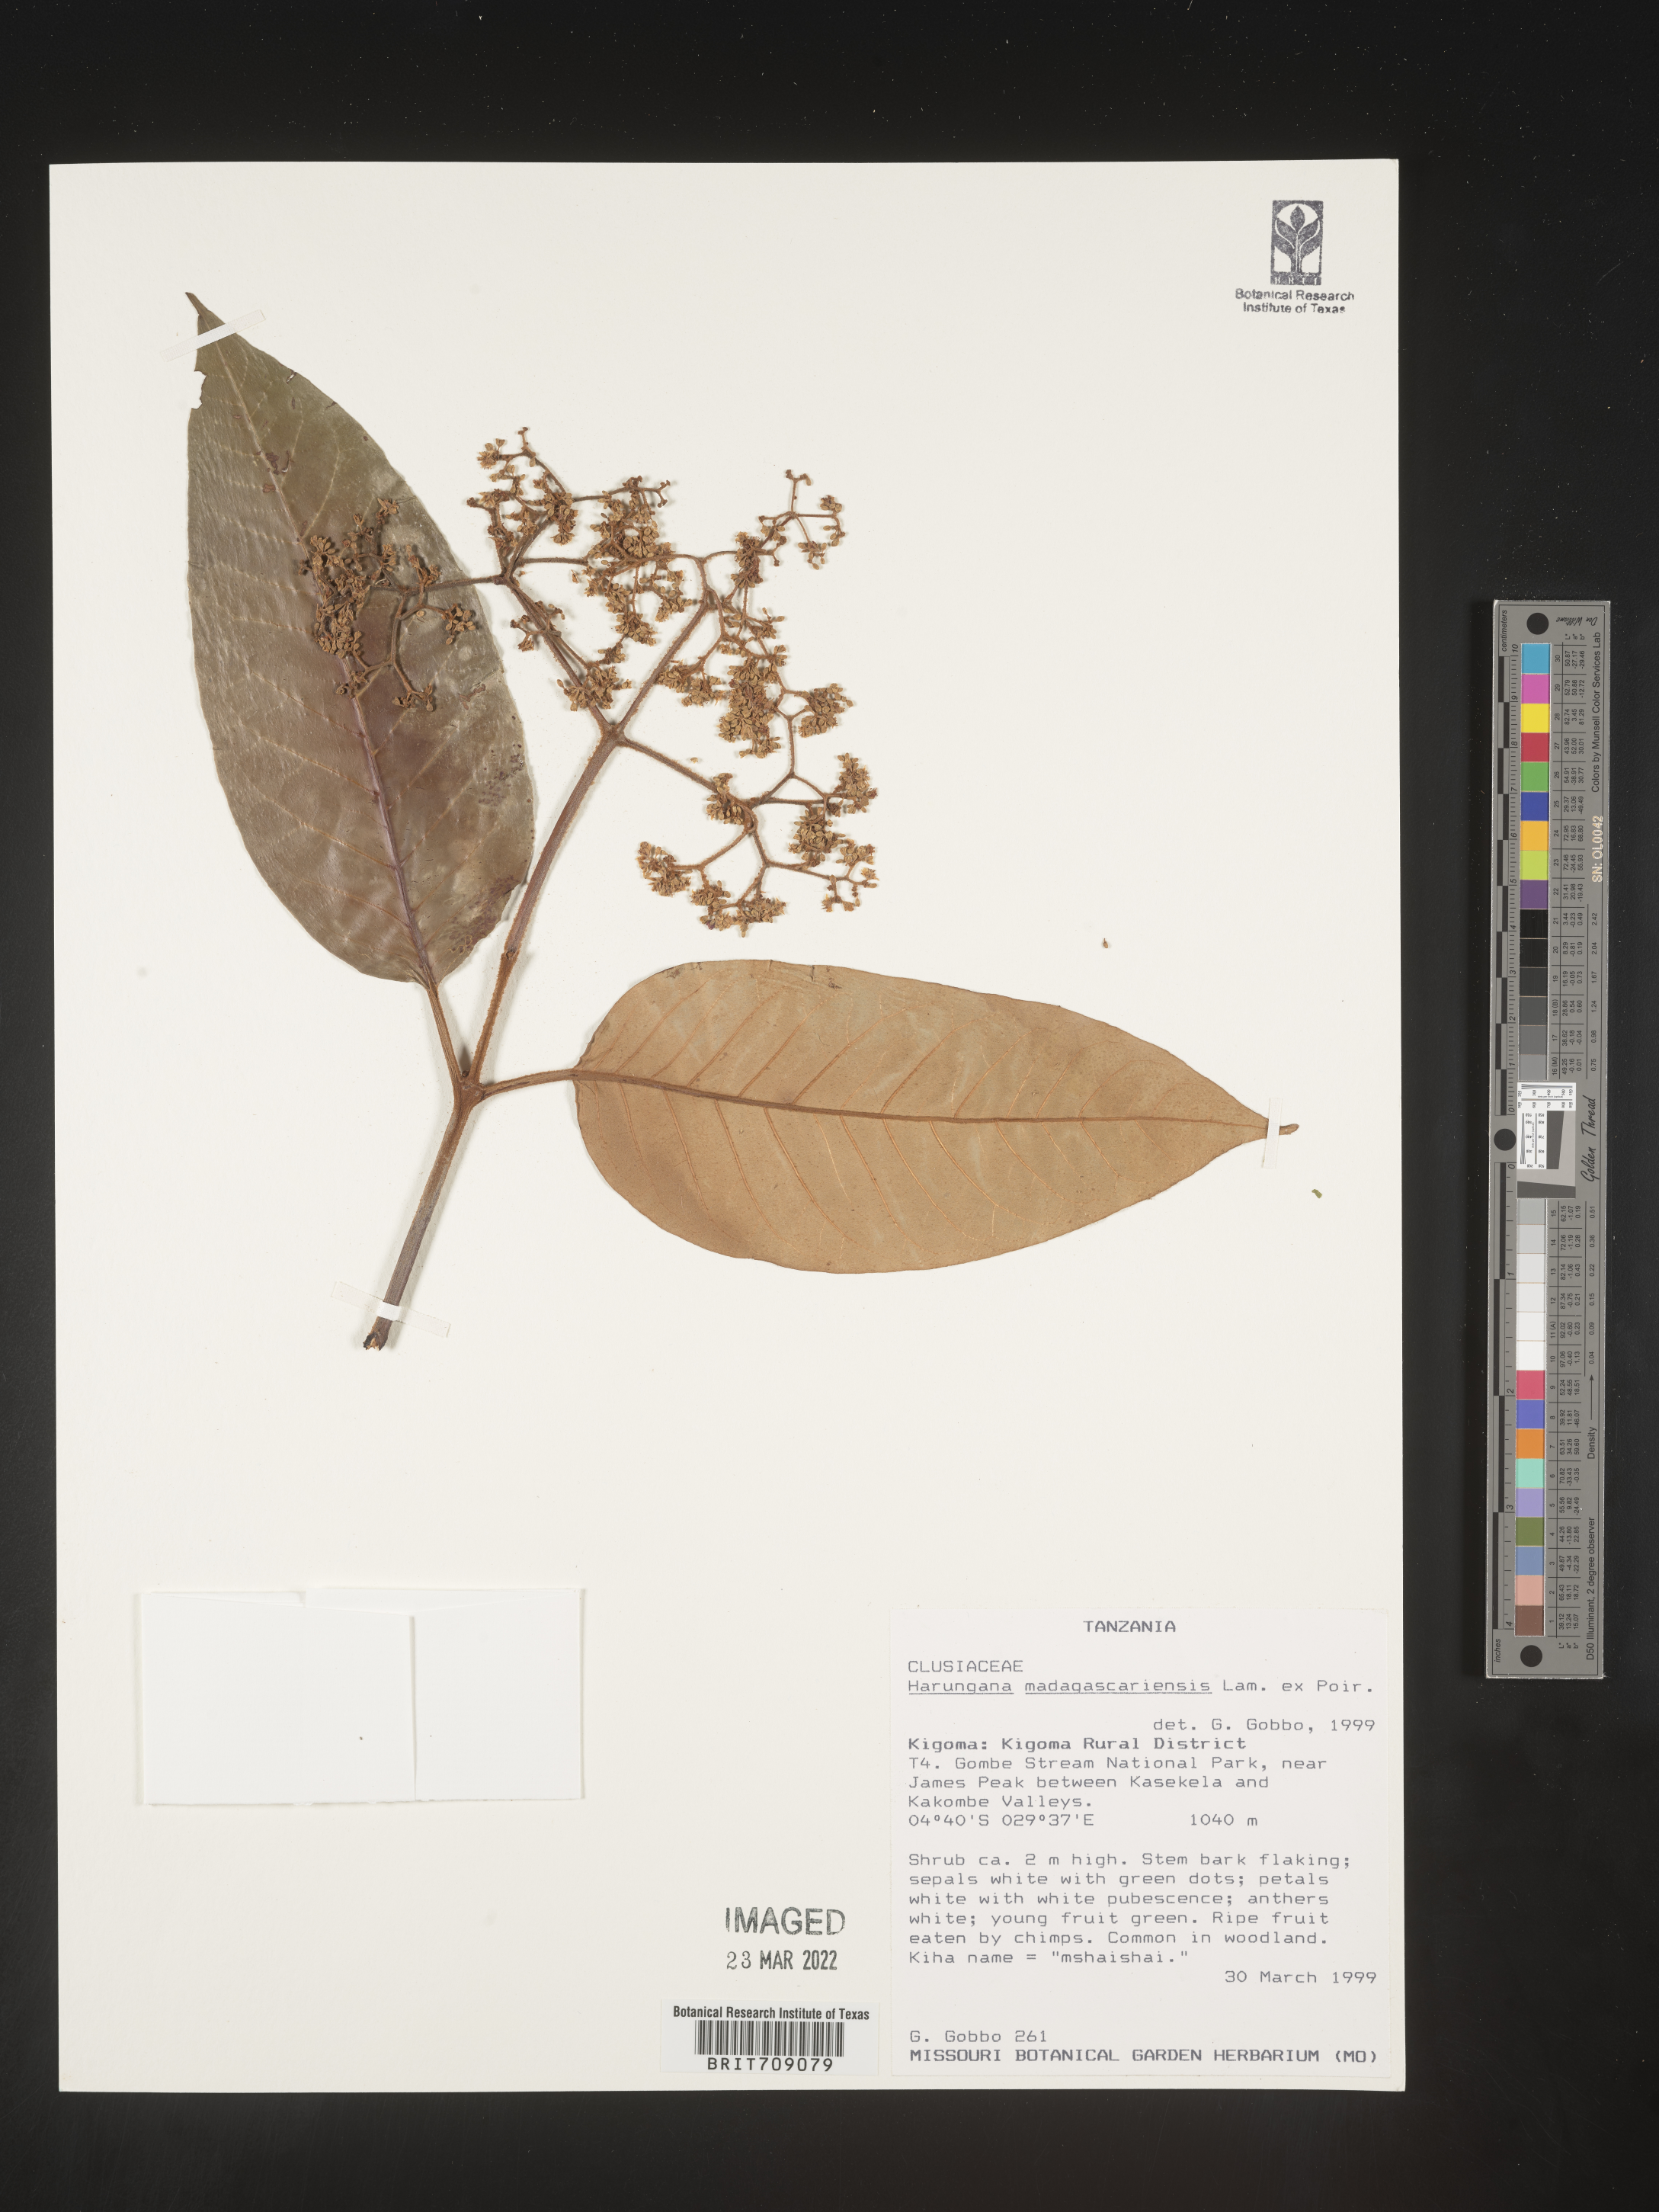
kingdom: Plantae
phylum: Tracheophyta
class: Magnoliopsida
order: Malpighiales
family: Hypericaceae
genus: Harungana
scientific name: Harungana
